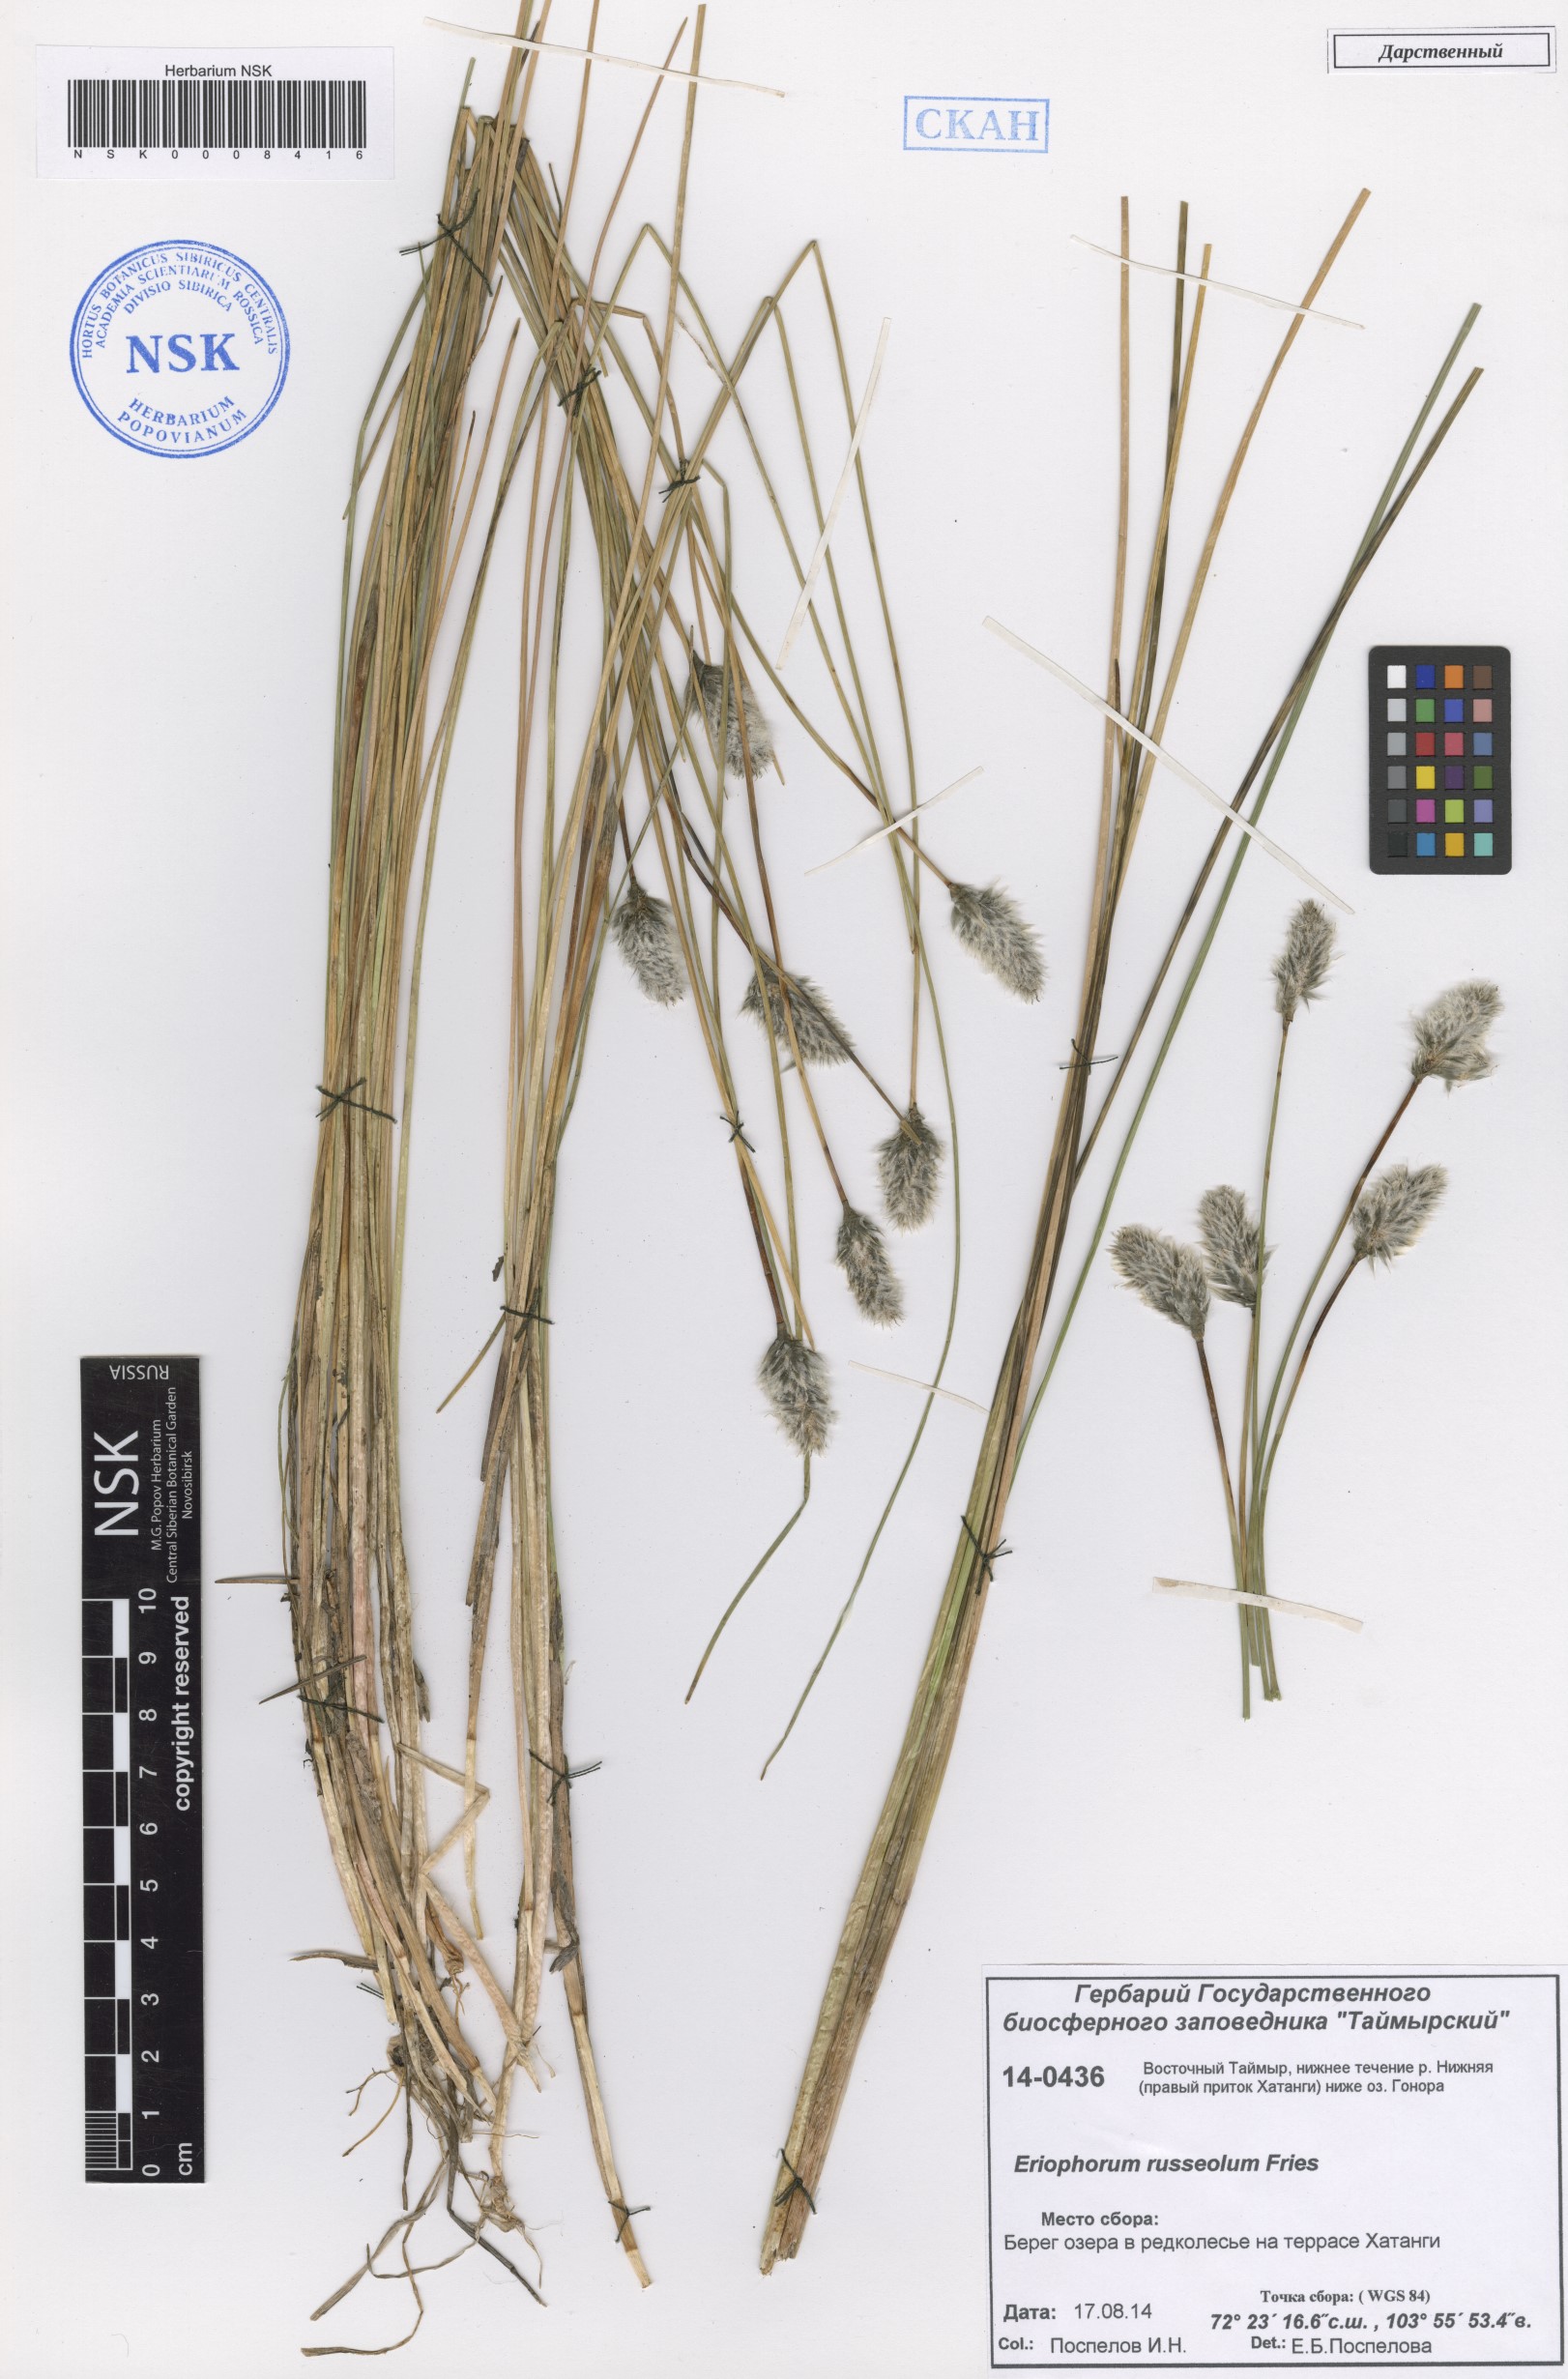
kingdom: Plantae
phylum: Tracheophyta
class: Liliopsida
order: Poales
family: Cyperaceae
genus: Eriophorum
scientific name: Eriophorum chamissonis
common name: Chamisso's cottongrass
